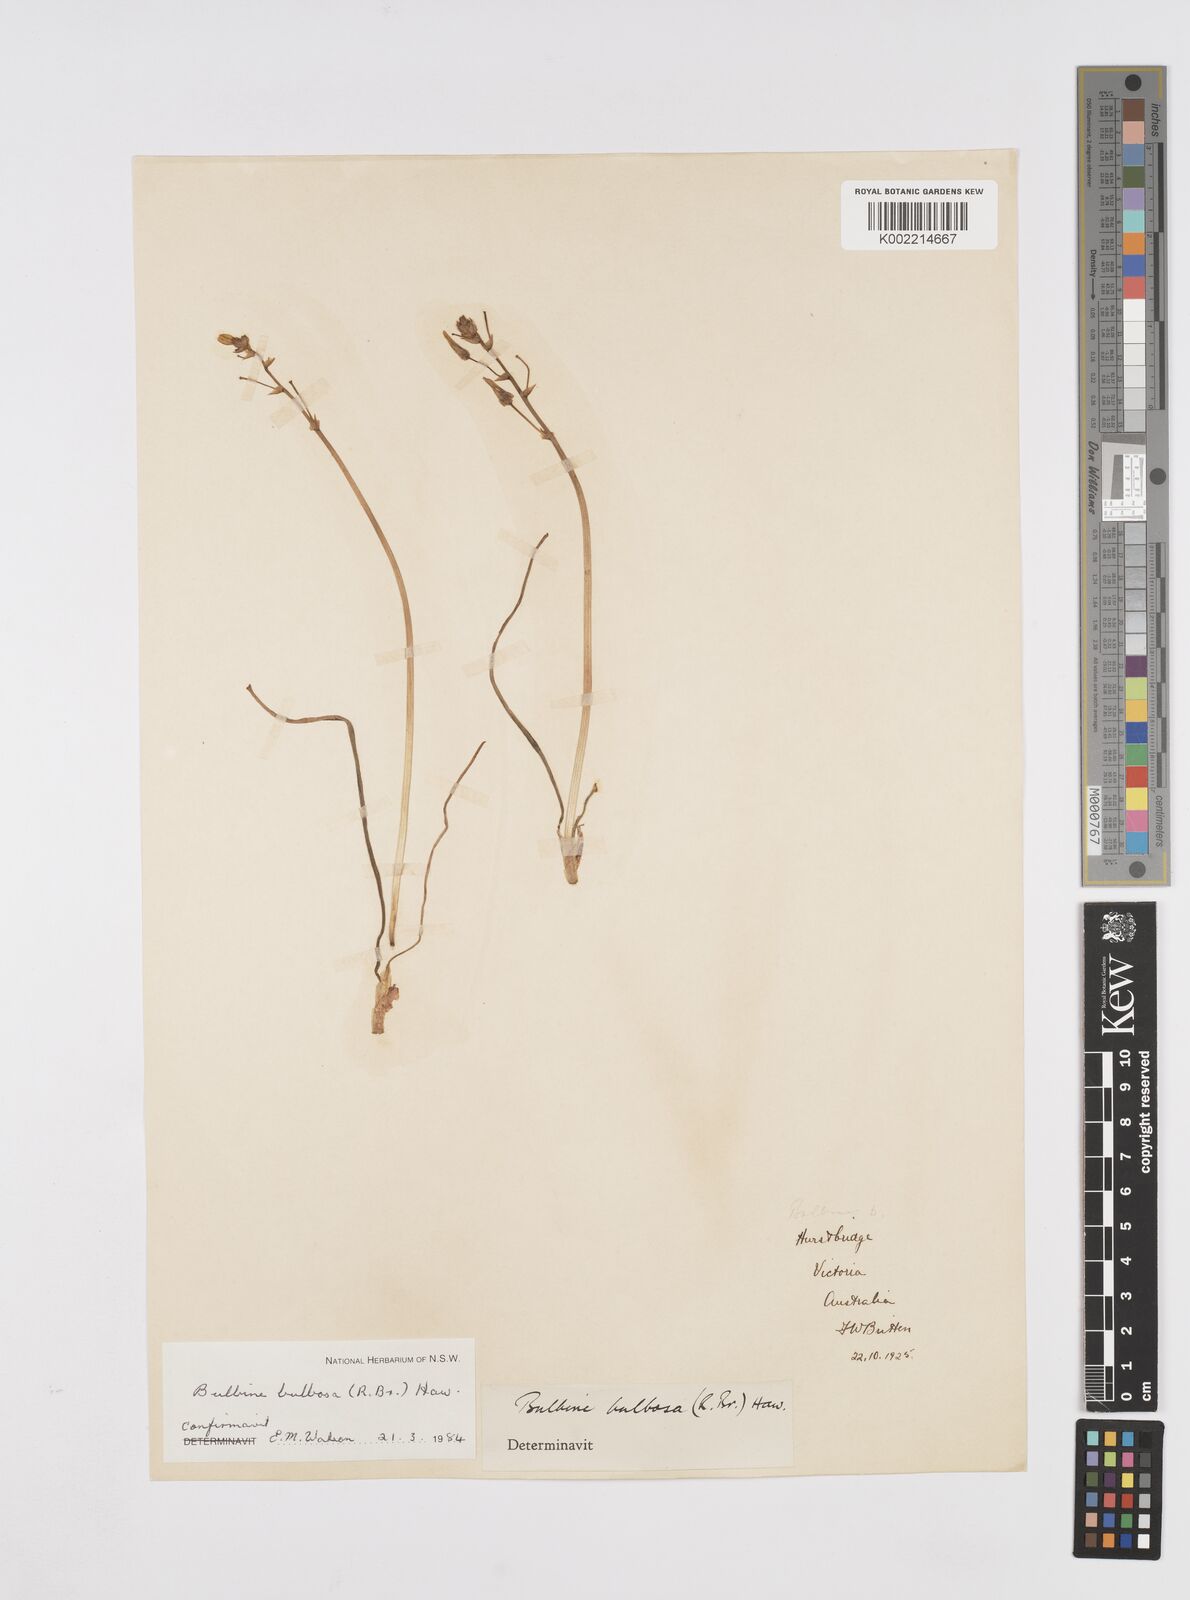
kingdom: Plantae
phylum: Tracheophyta
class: Liliopsida
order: Asparagales
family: Asphodelaceae
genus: Bulbine
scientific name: Bulbine bulbosa
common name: Golden-lily
